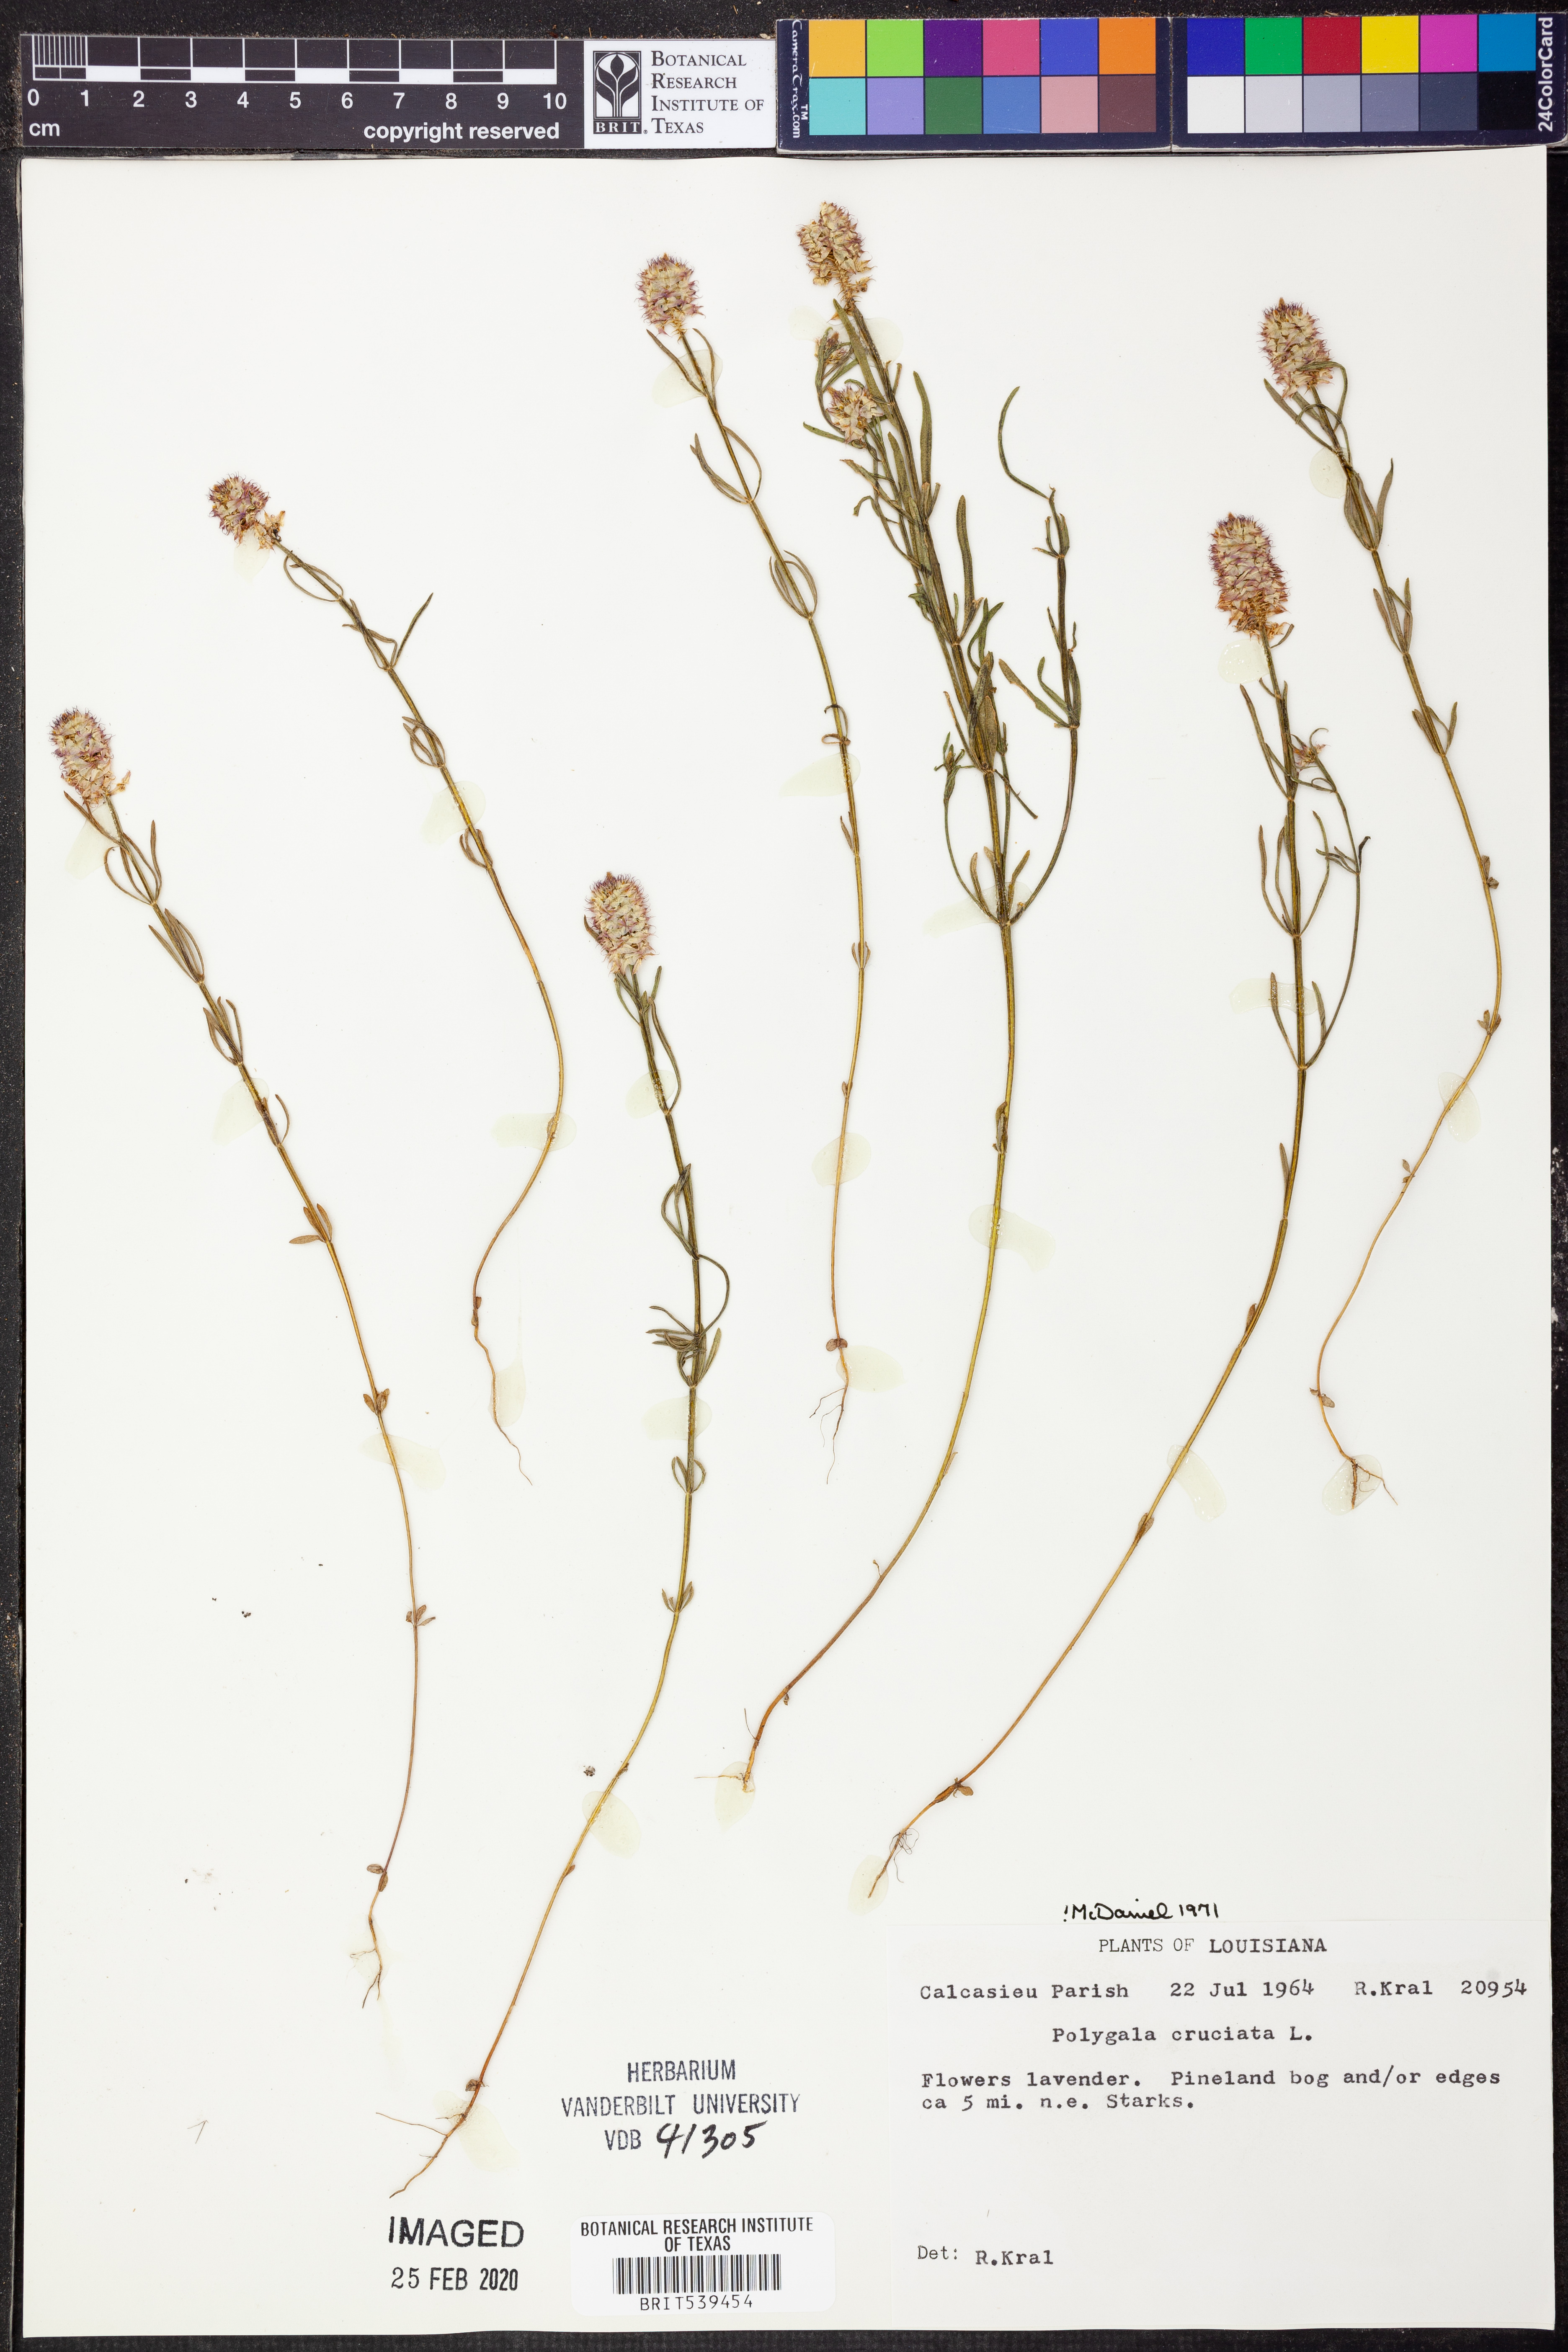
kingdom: Plantae
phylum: Tracheophyta
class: Magnoliopsida
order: Fabales
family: Polygalaceae
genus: Polygala
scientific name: Polygala cruciata
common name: Drumheads
